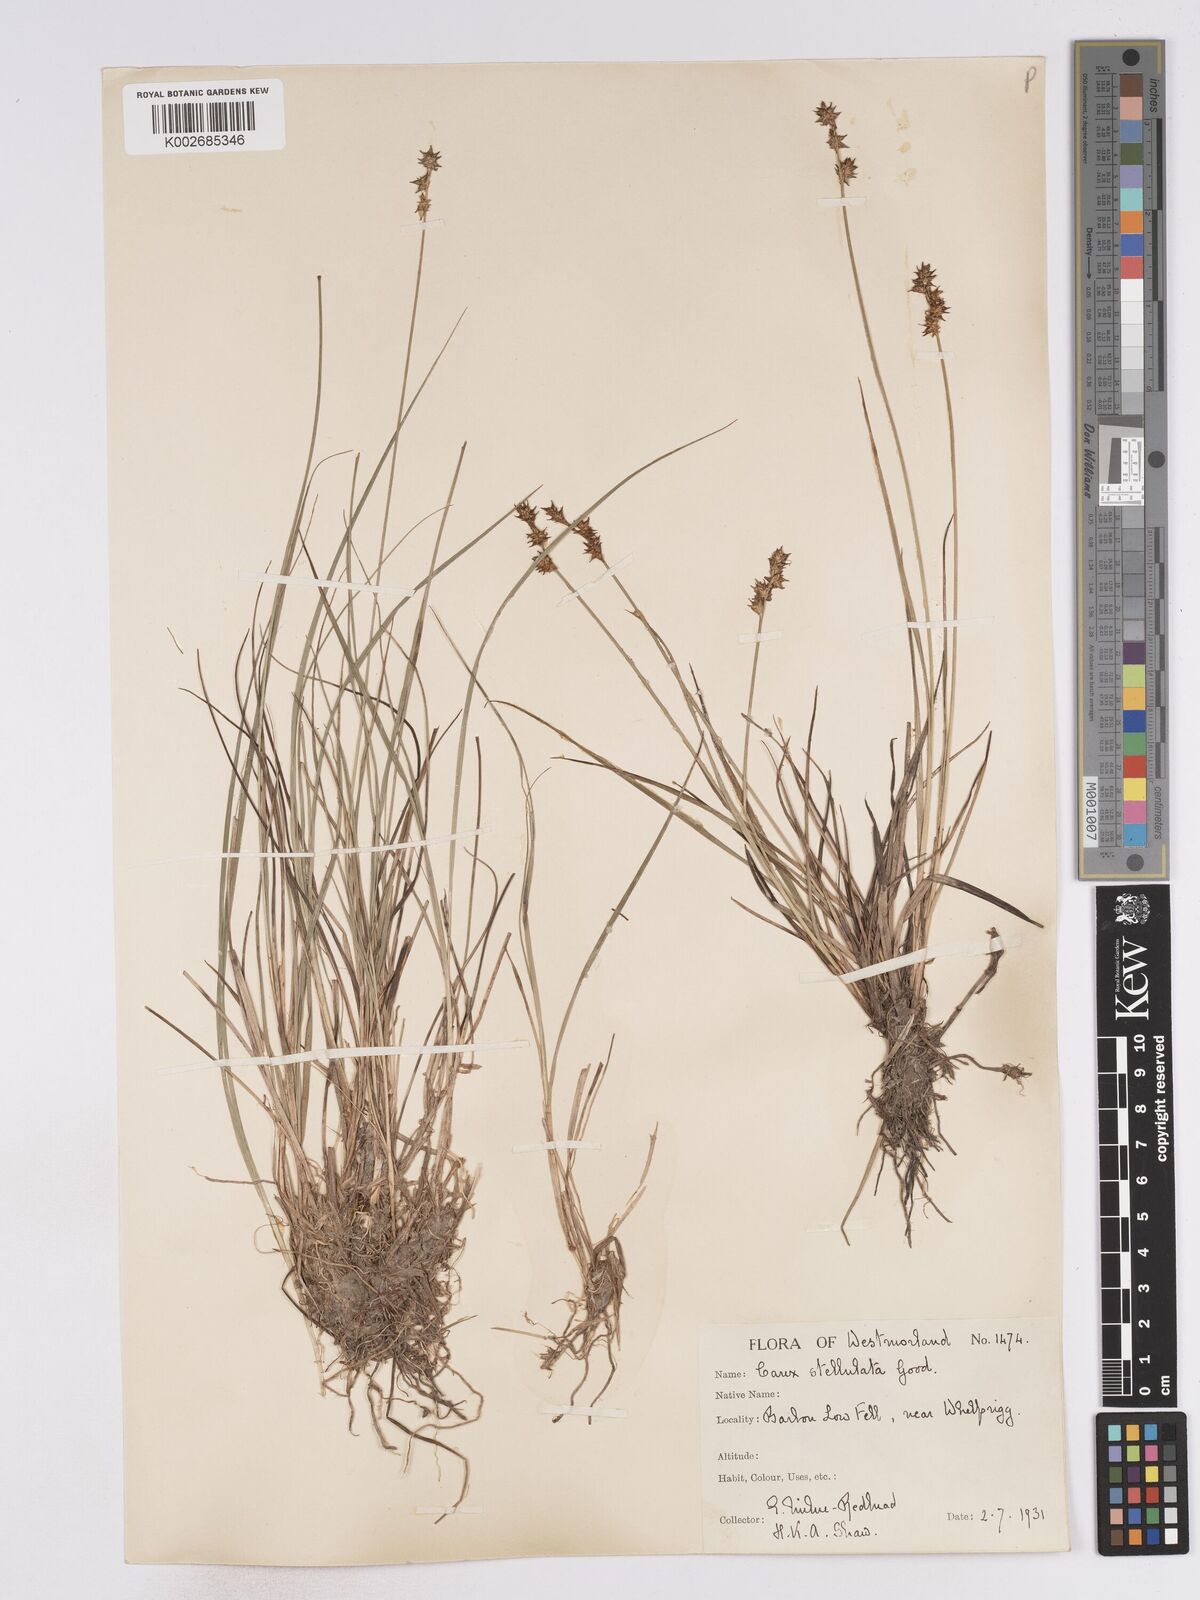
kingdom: Plantae
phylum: Tracheophyta
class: Liliopsida
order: Poales
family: Cyperaceae
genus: Carex
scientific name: Carex echinata
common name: Star sedge
